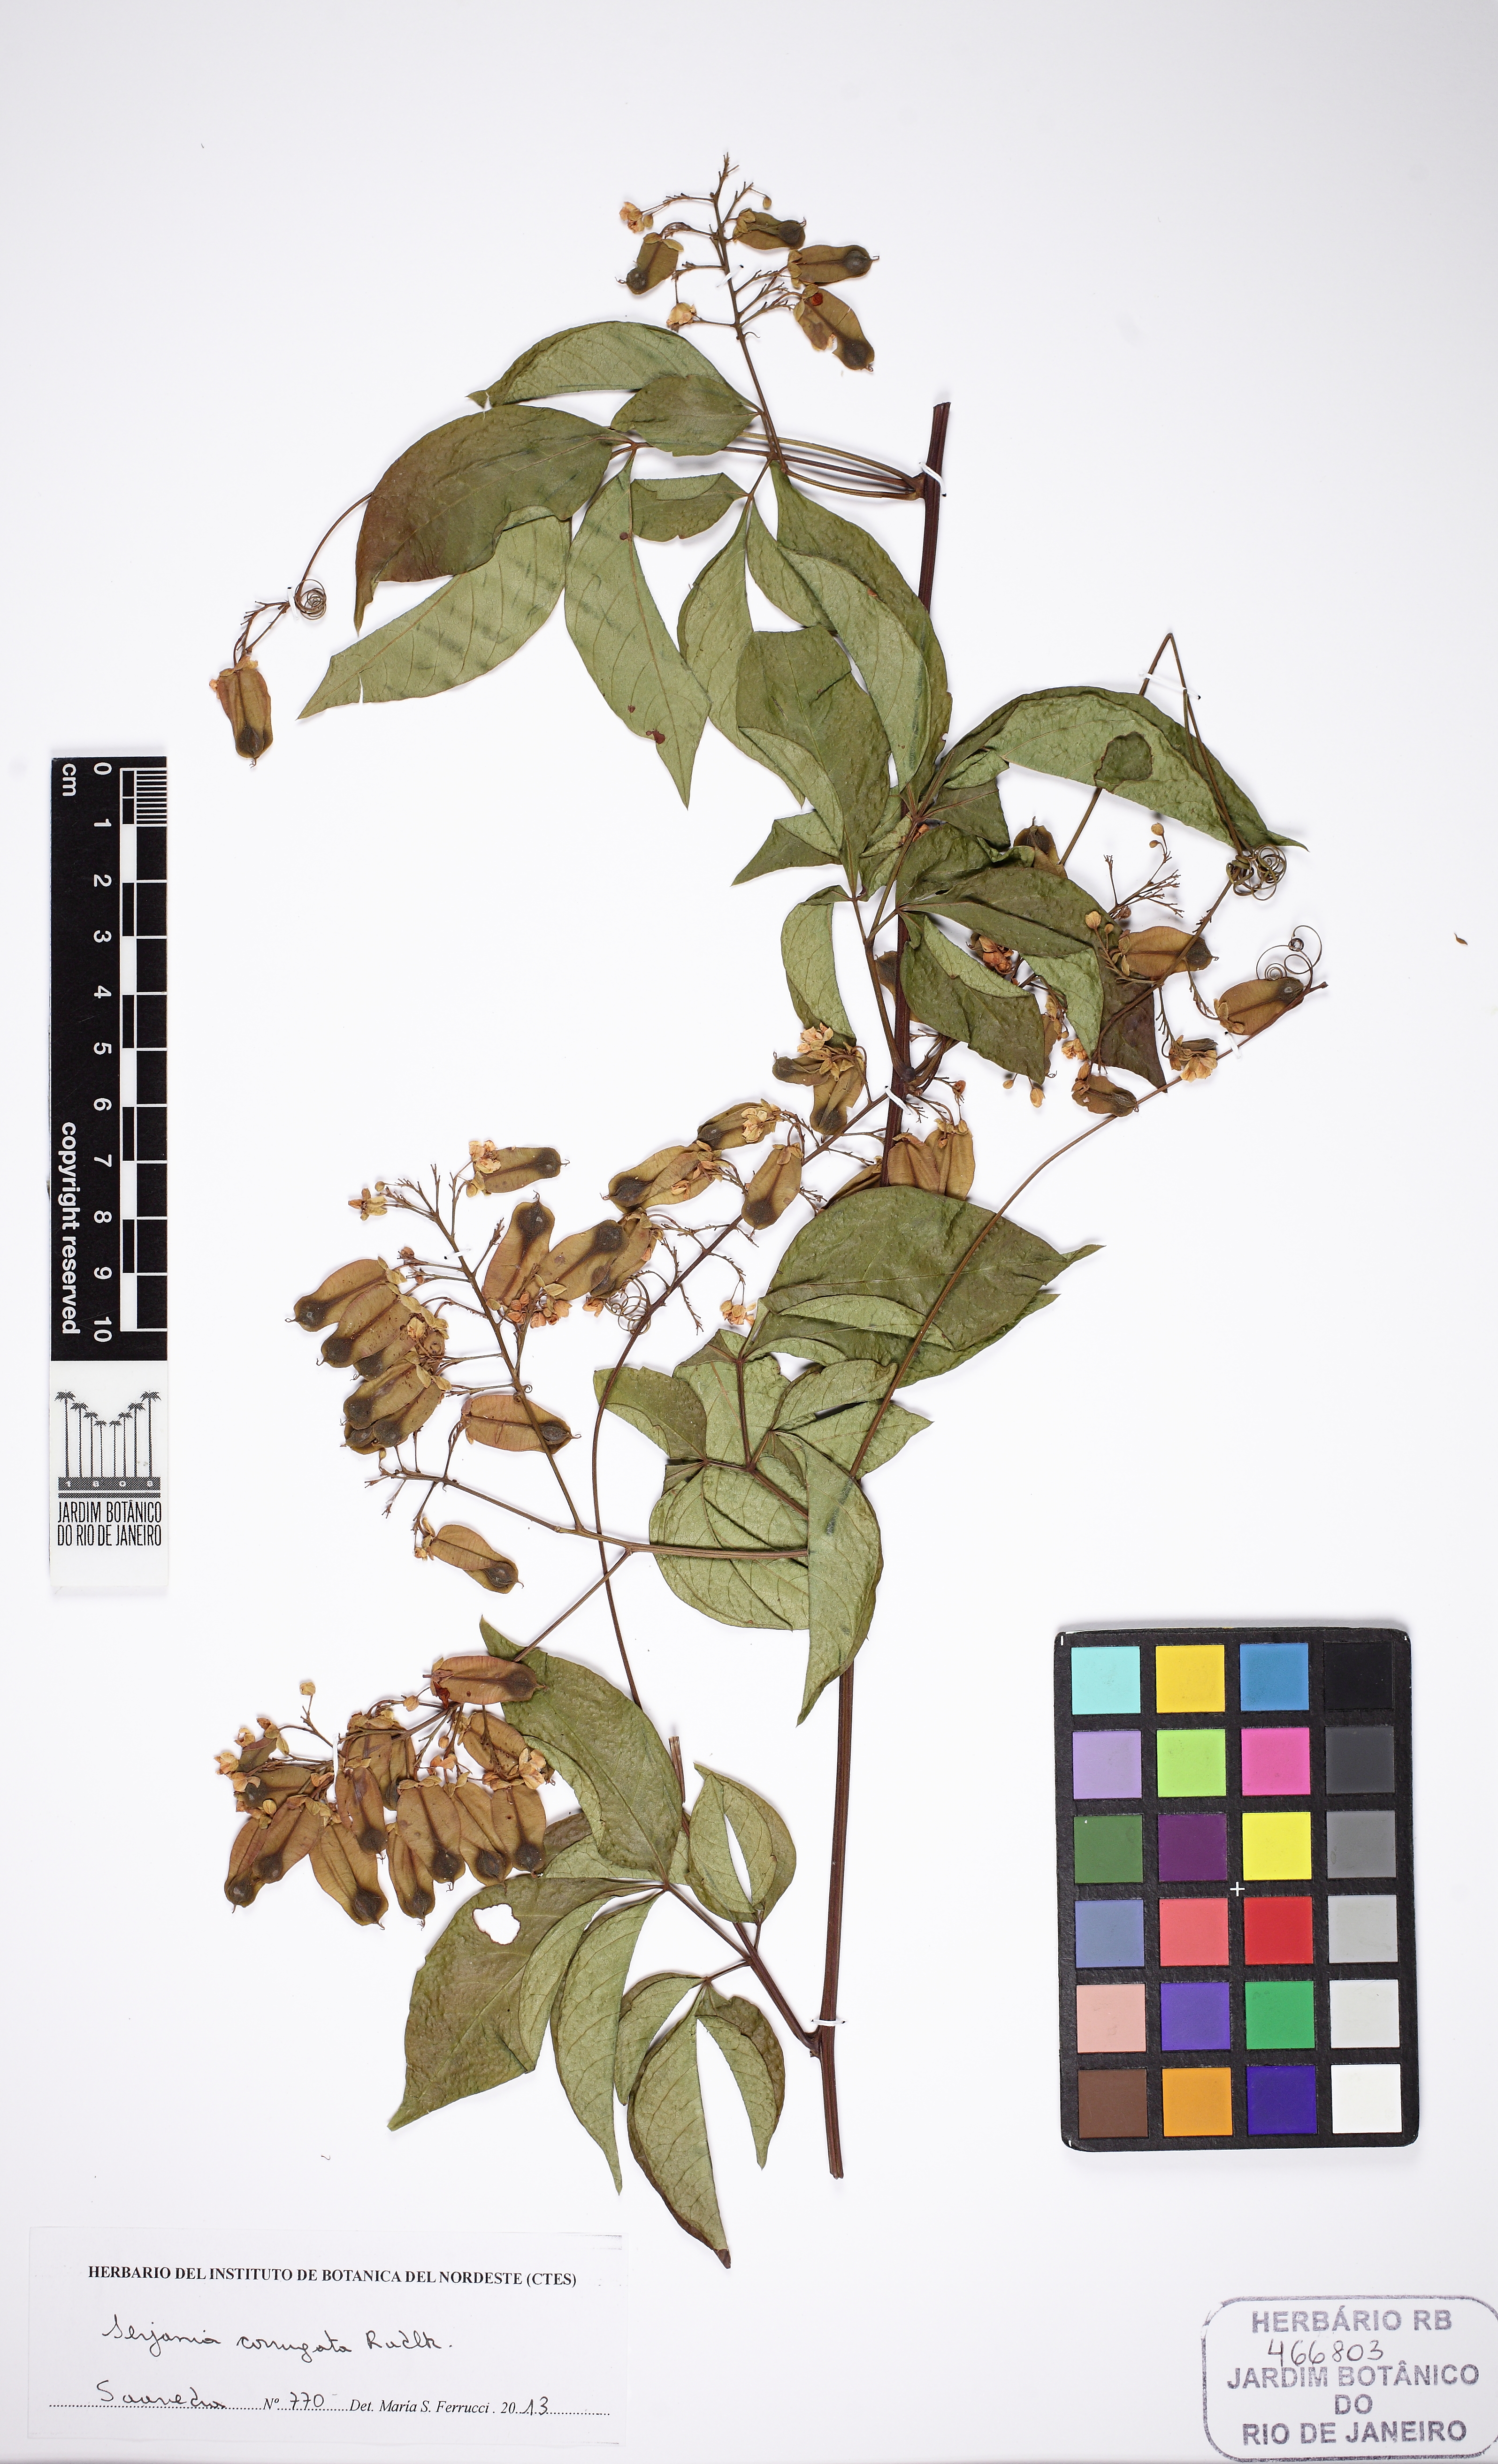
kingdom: Plantae
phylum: Tracheophyta
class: Magnoliopsida
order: Sapindales
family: Sapindaceae
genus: Serjania
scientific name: Serjania clematidifolia
